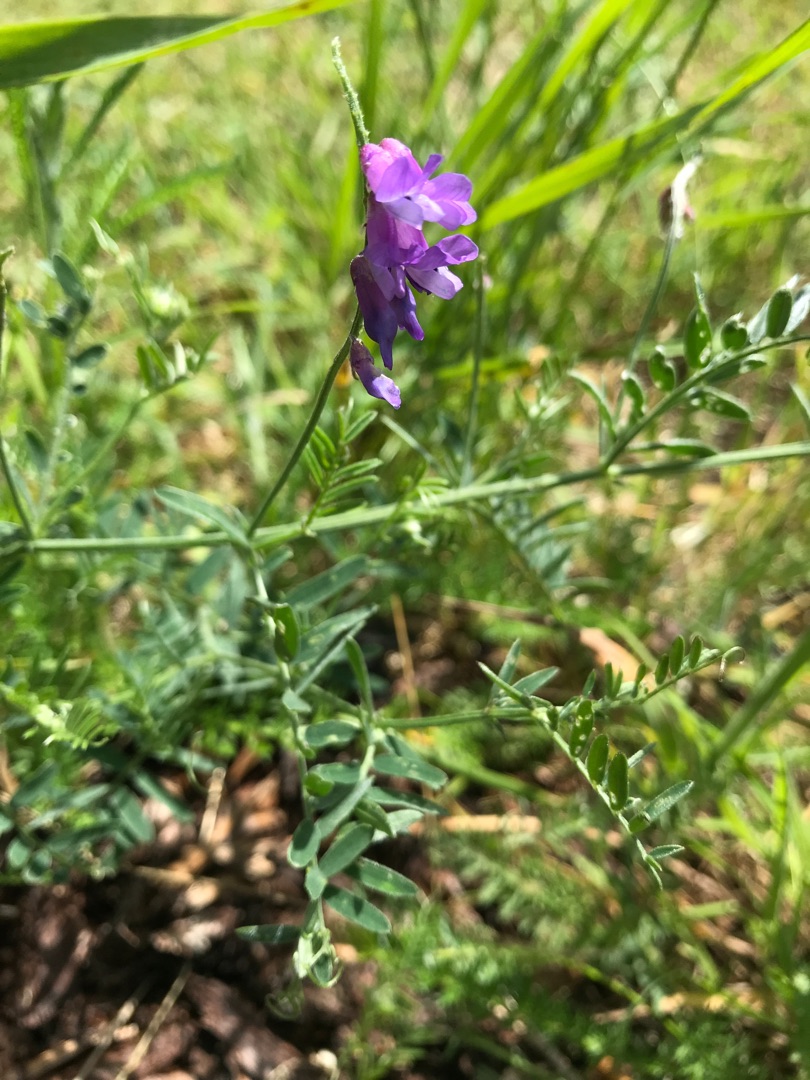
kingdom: Plantae
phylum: Tracheophyta
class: Magnoliopsida
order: Fabales
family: Fabaceae
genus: Vicia
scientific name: Vicia cracca
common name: Muse-vikke
